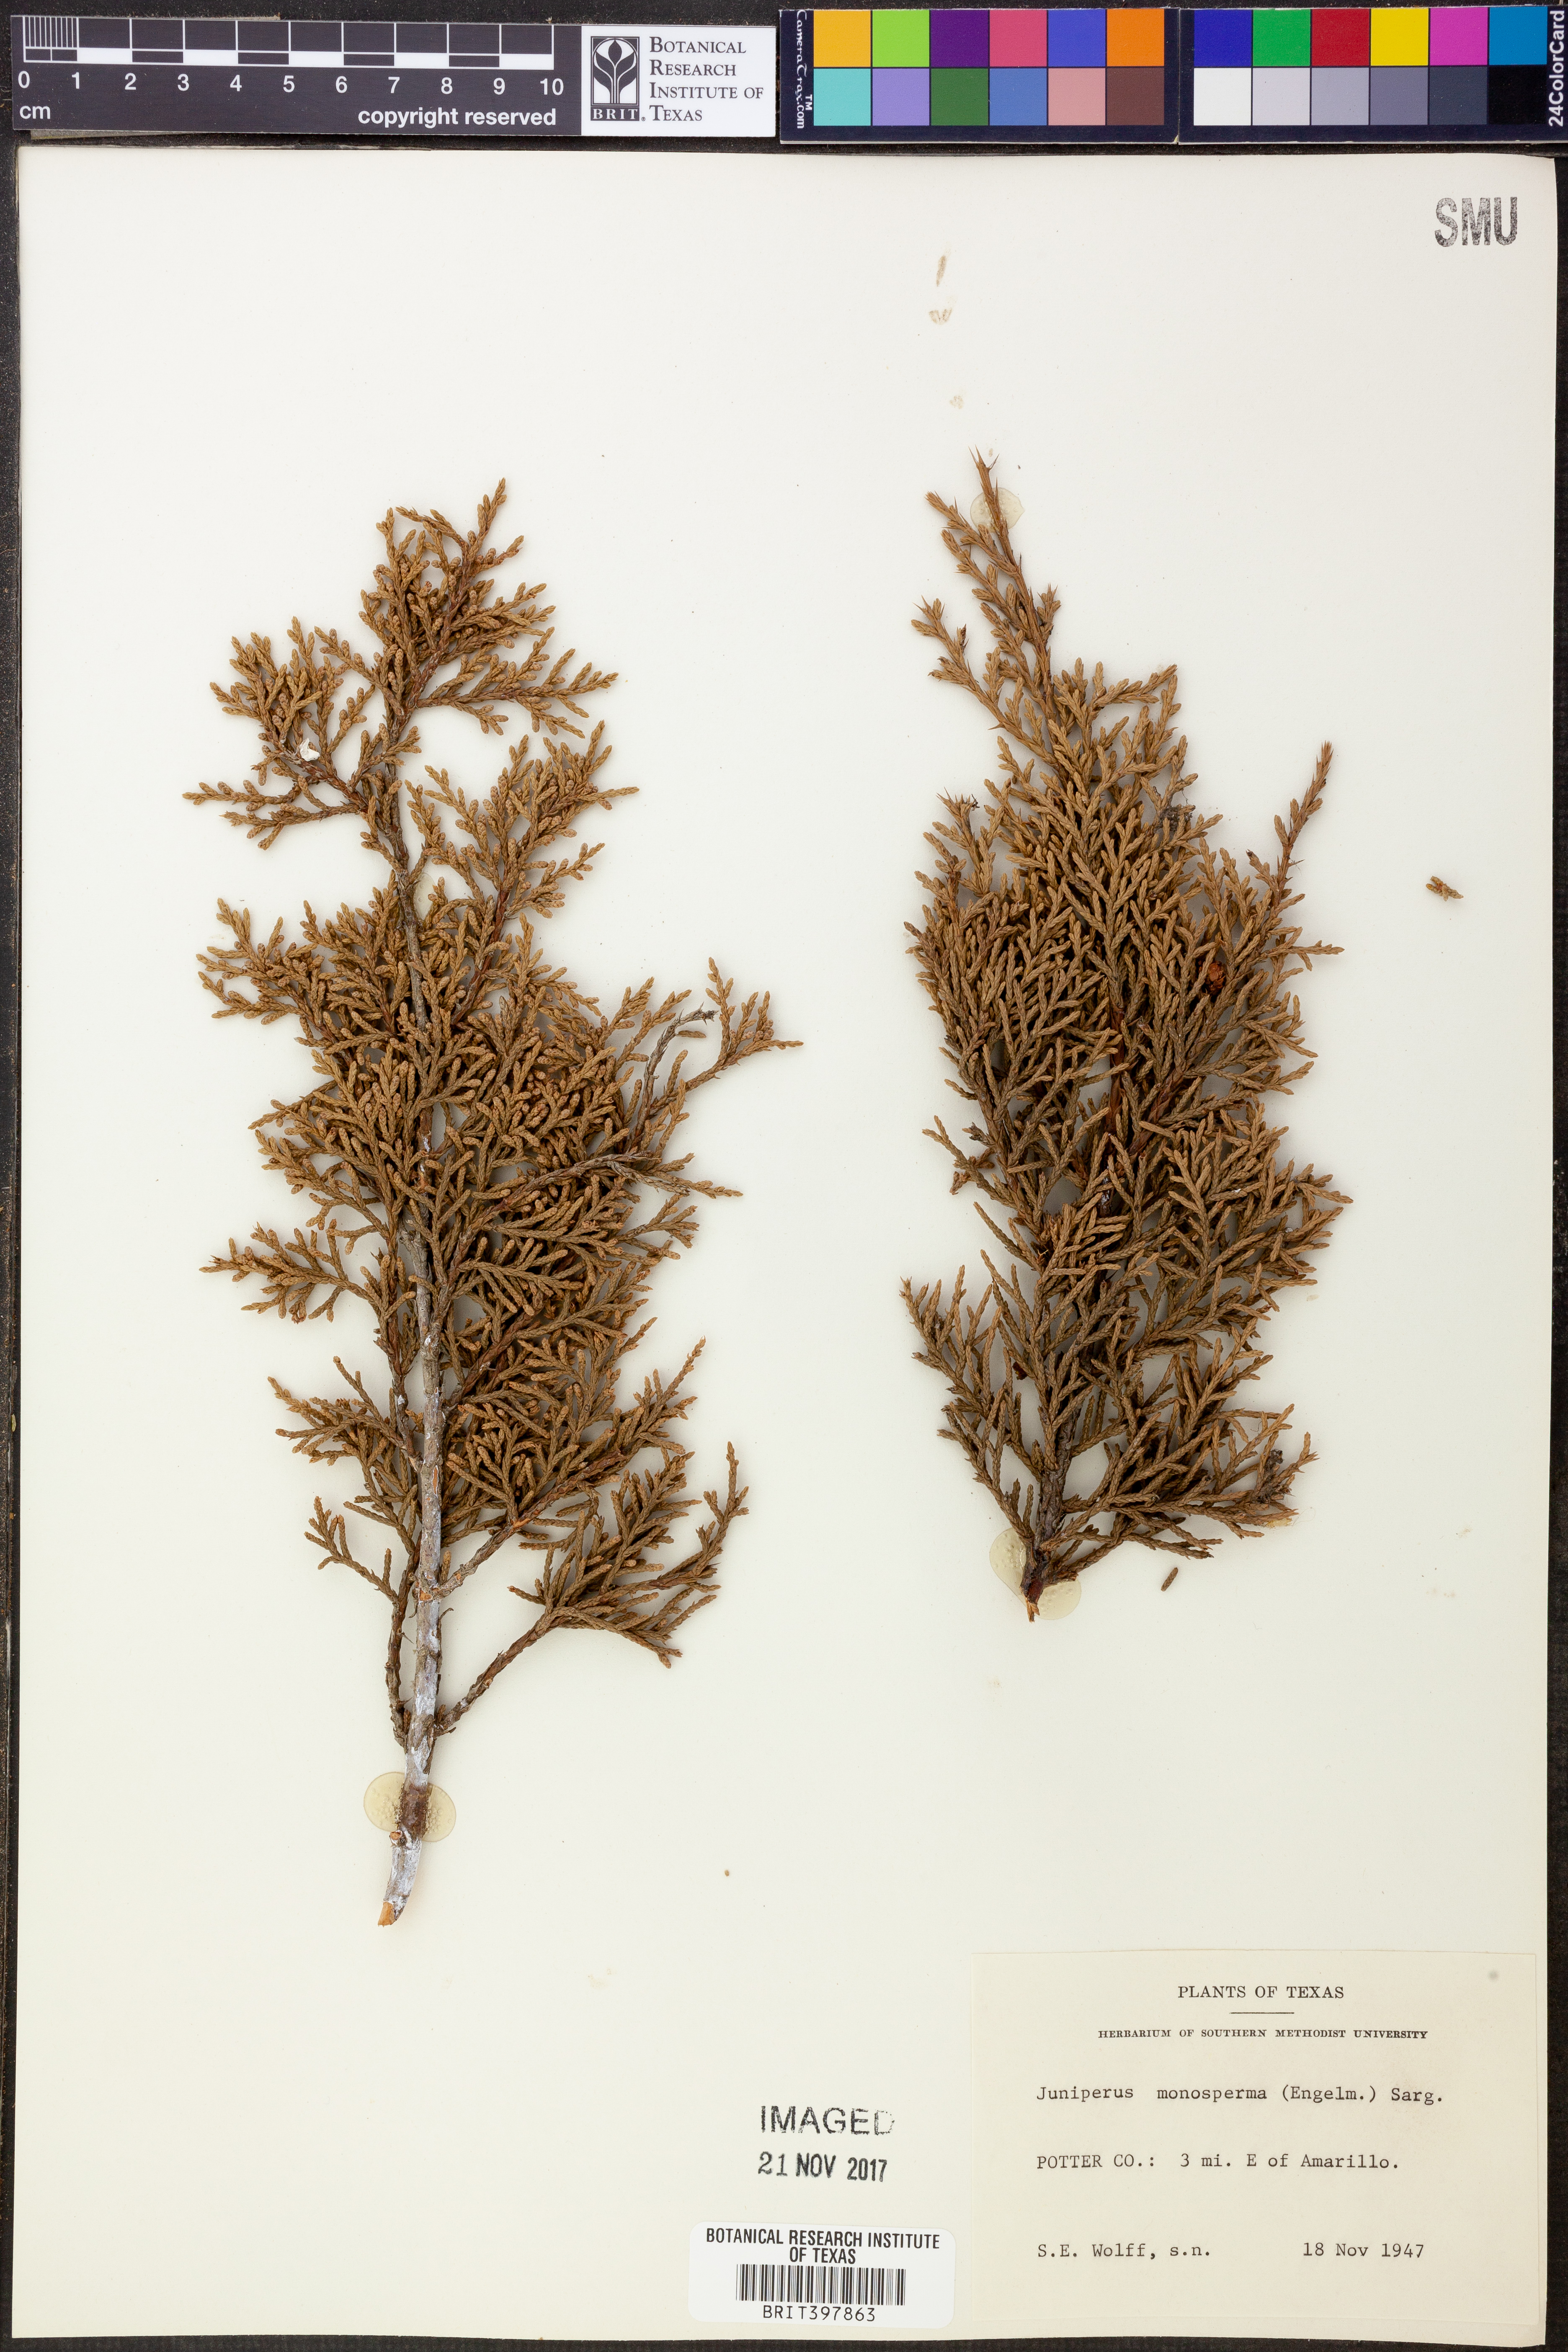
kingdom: Plantae
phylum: Tracheophyta
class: Pinopsida
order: Pinales
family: Cupressaceae
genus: Juniperus
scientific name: Juniperus monosperma
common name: One-seed juniper
